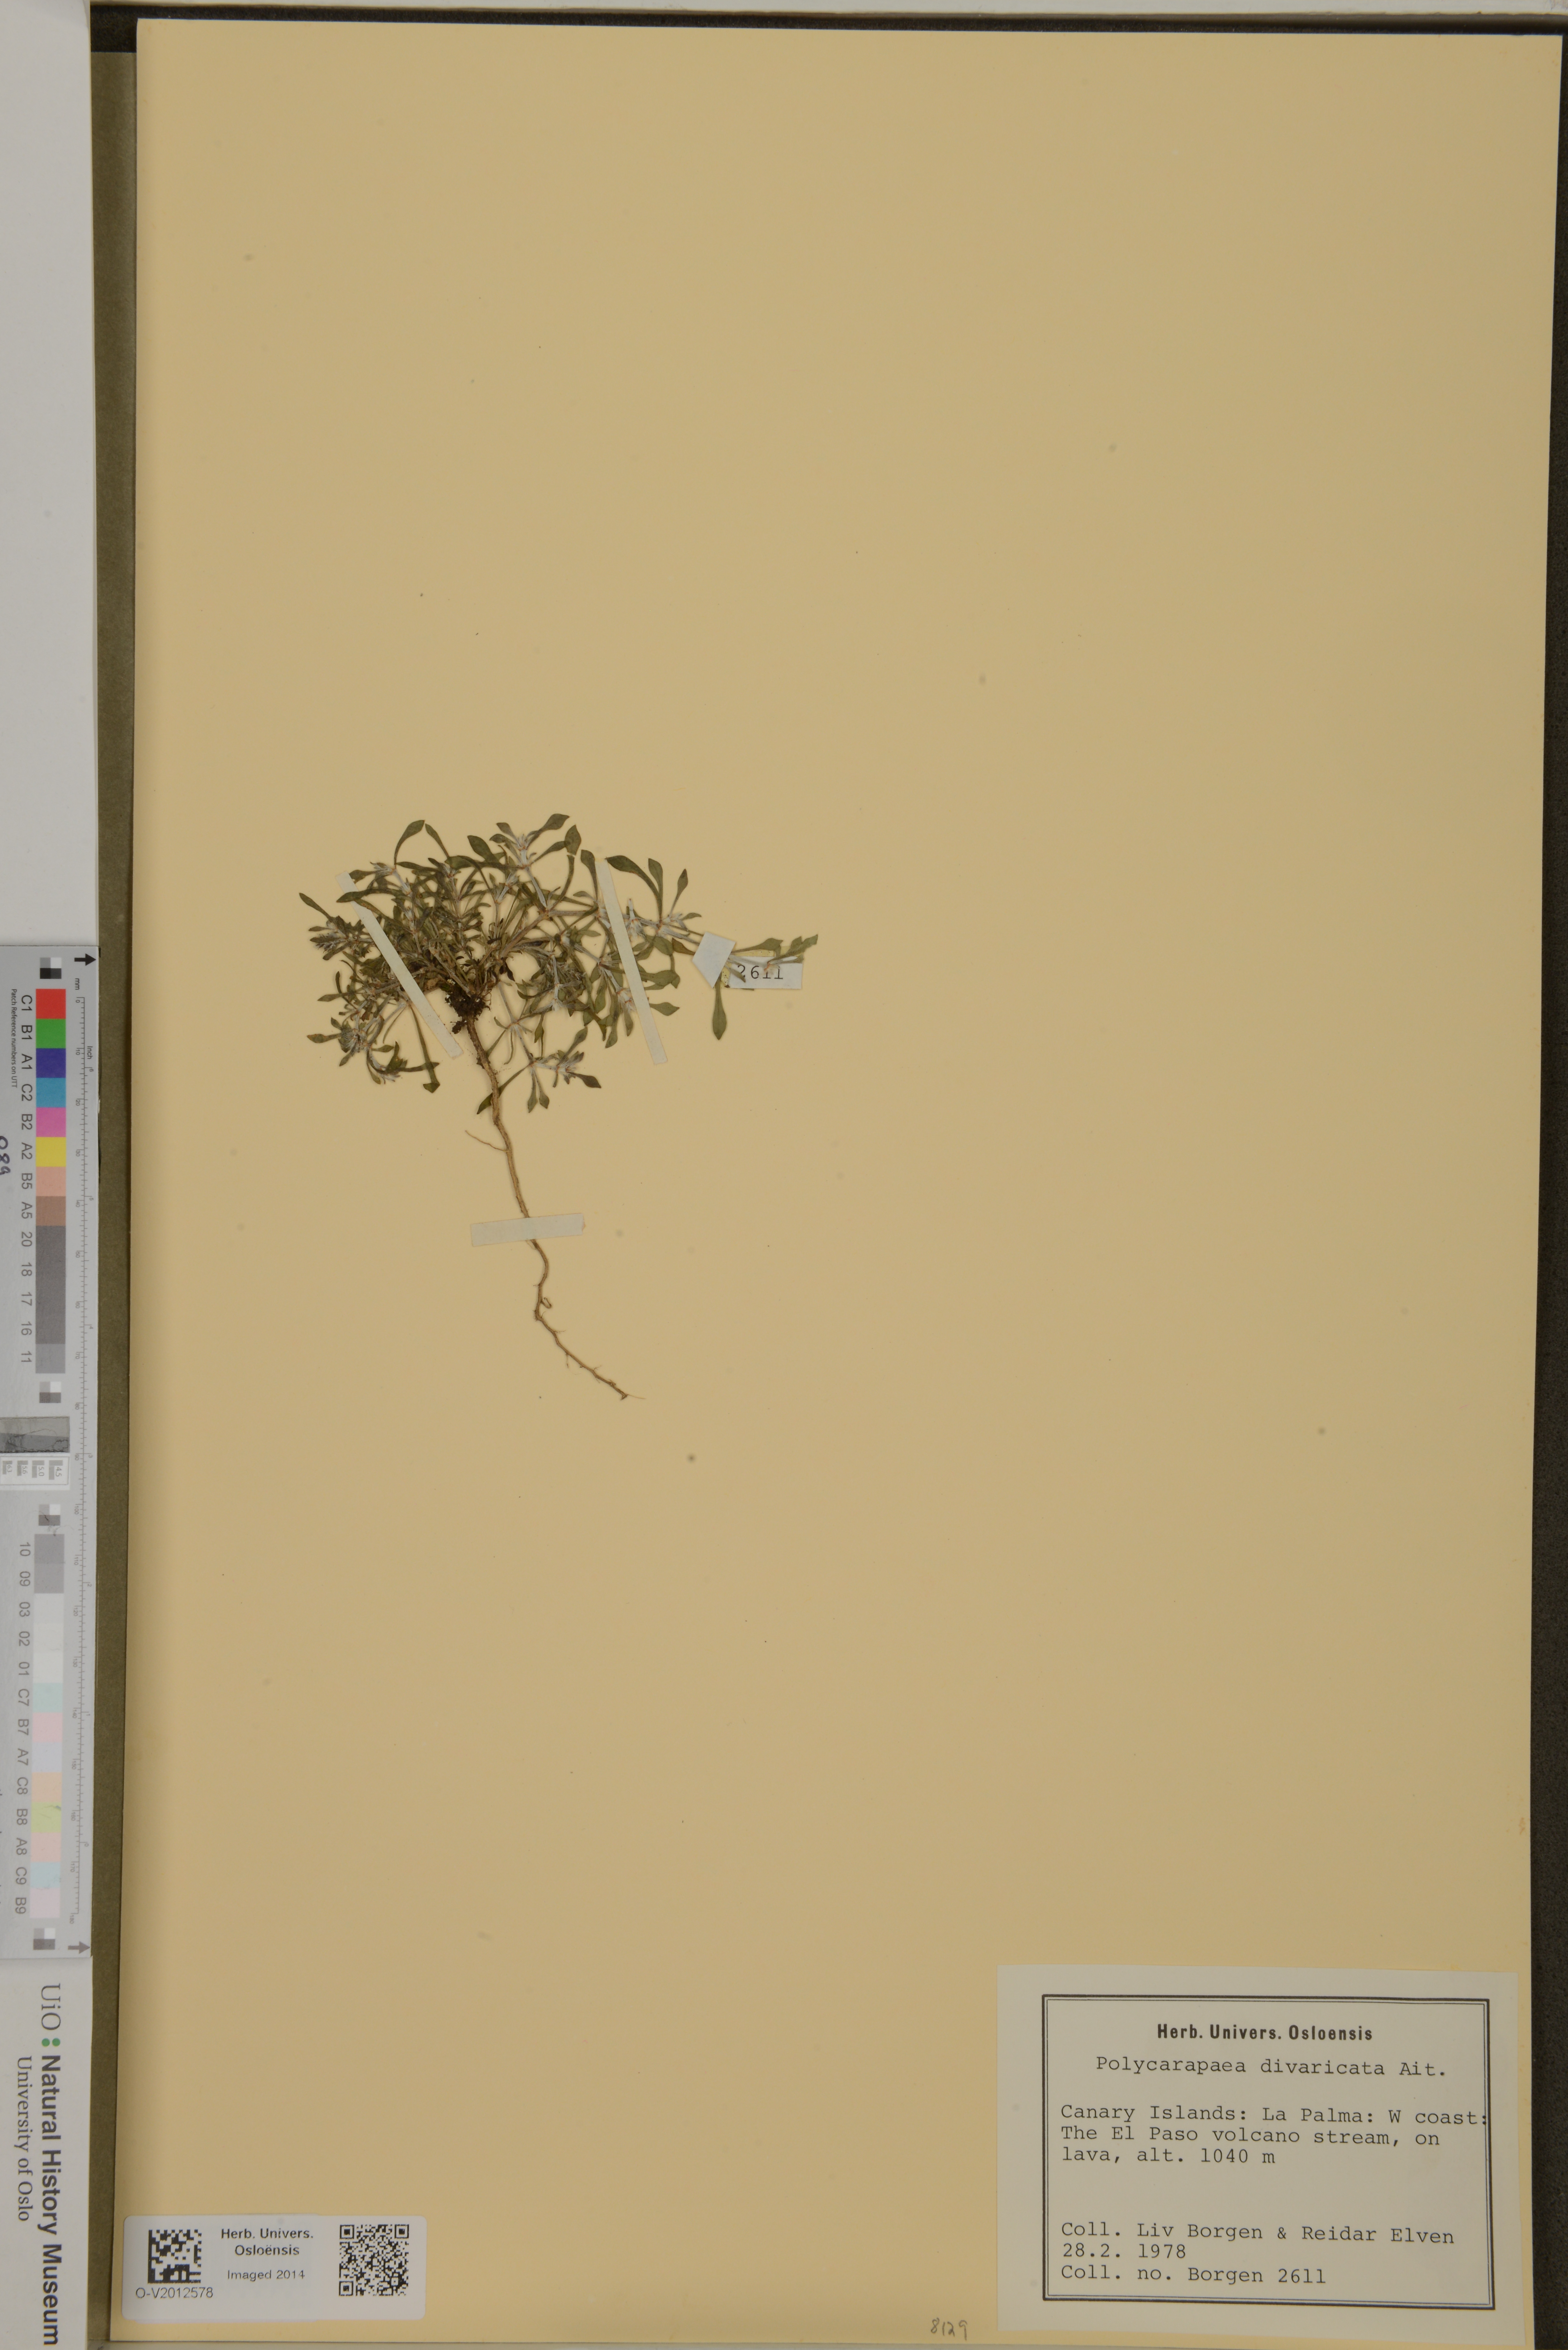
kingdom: Plantae
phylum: Tracheophyta
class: Magnoliopsida
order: Caryophyllales
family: Caryophyllaceae
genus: Polycarpaea
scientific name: Polycarpaea divaricata
